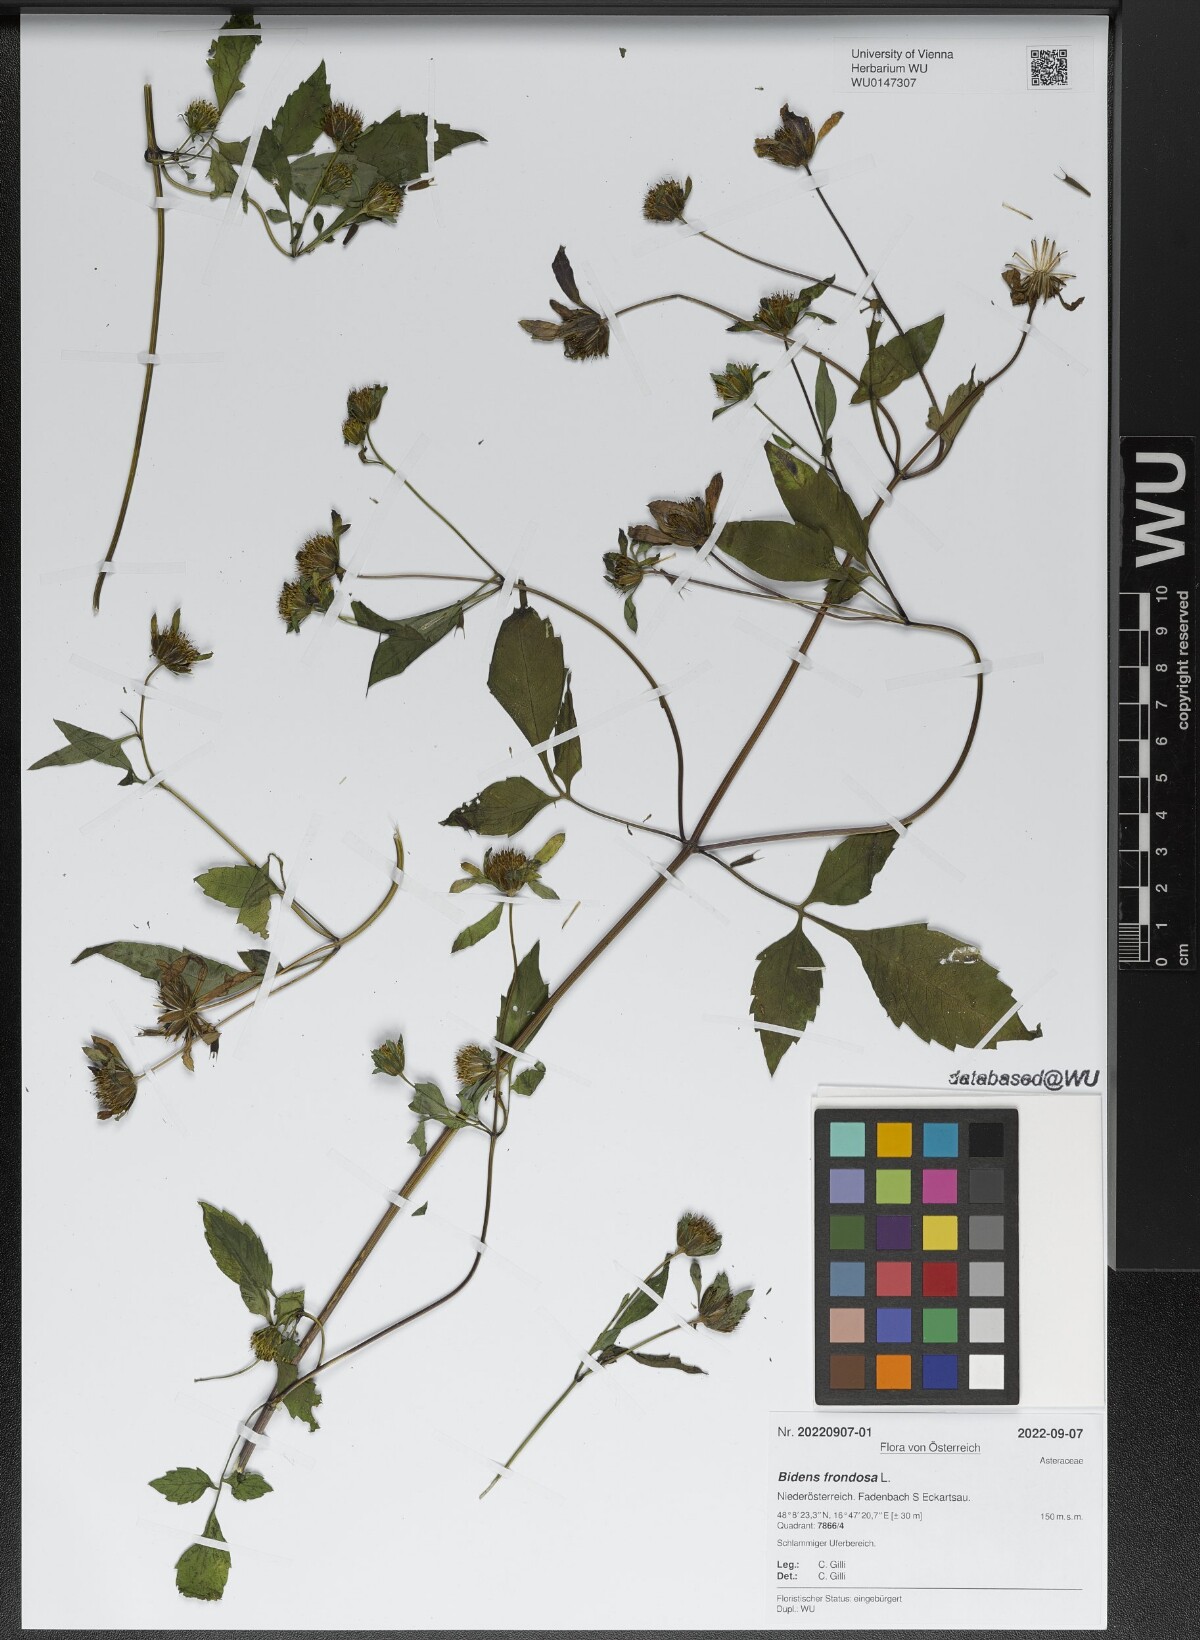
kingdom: Plantae
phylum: Tracheophyta
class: Magnoliopsida
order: Asterales
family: Asteraceae
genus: Bidens
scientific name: Bidens frondosa
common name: Beggarticks
